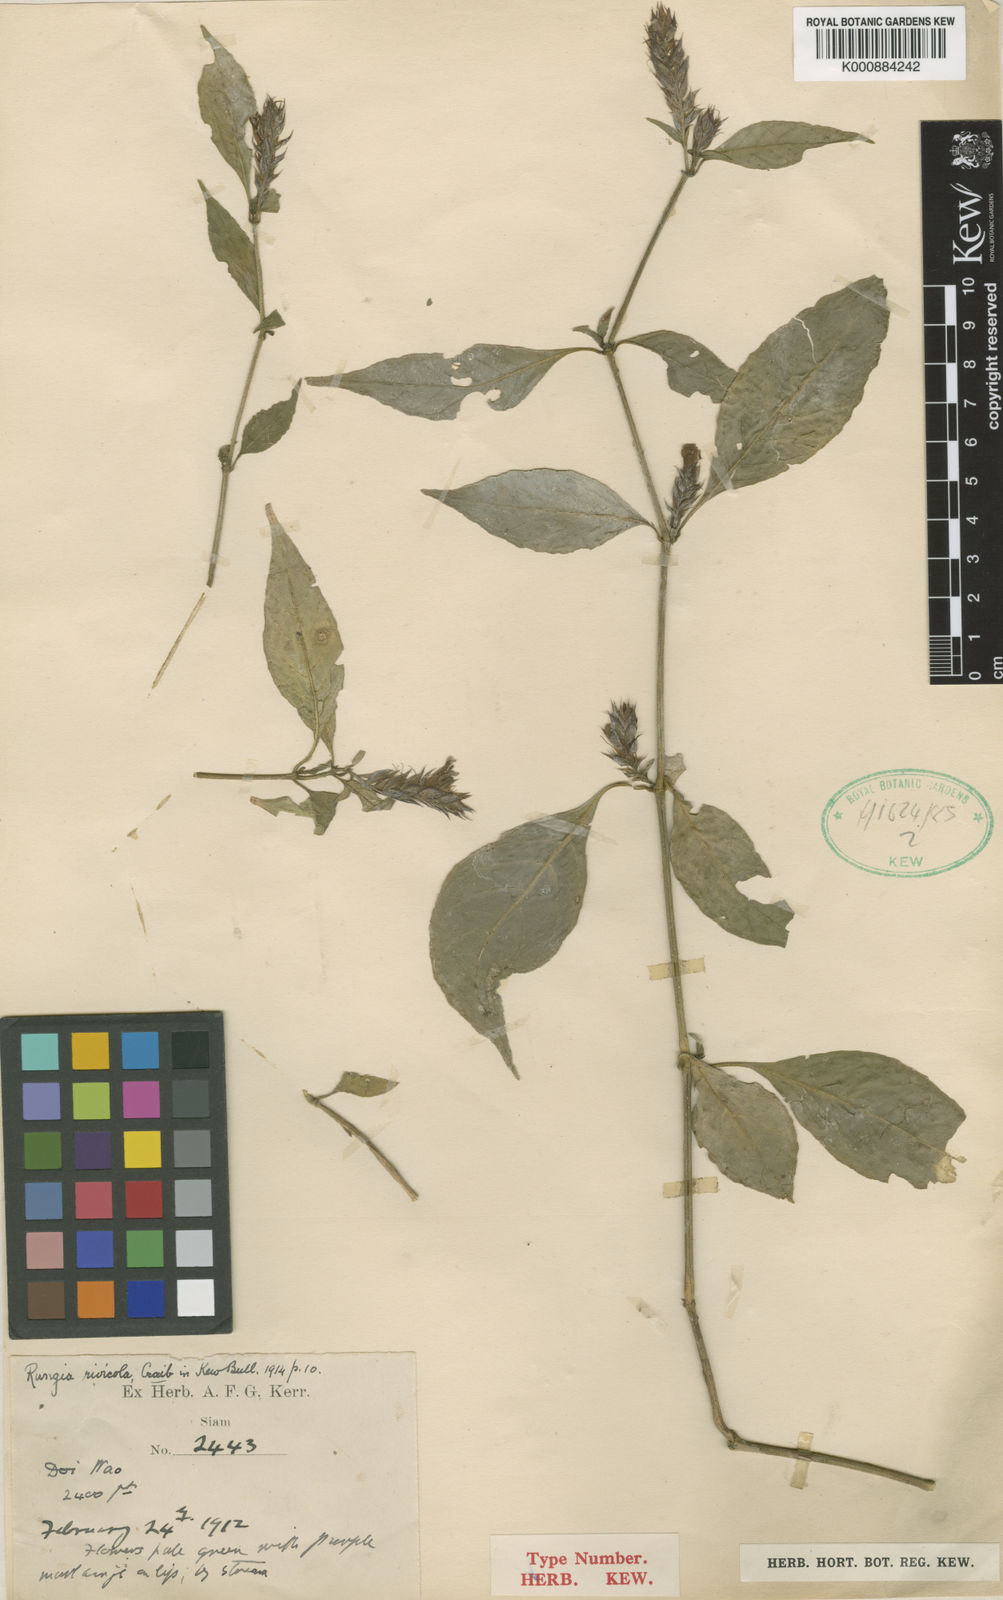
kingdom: Plantae
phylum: Tracheophyta
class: Magnoliopsida
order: Lamiales
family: Acanthaceae
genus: Justicia
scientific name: Justicia
